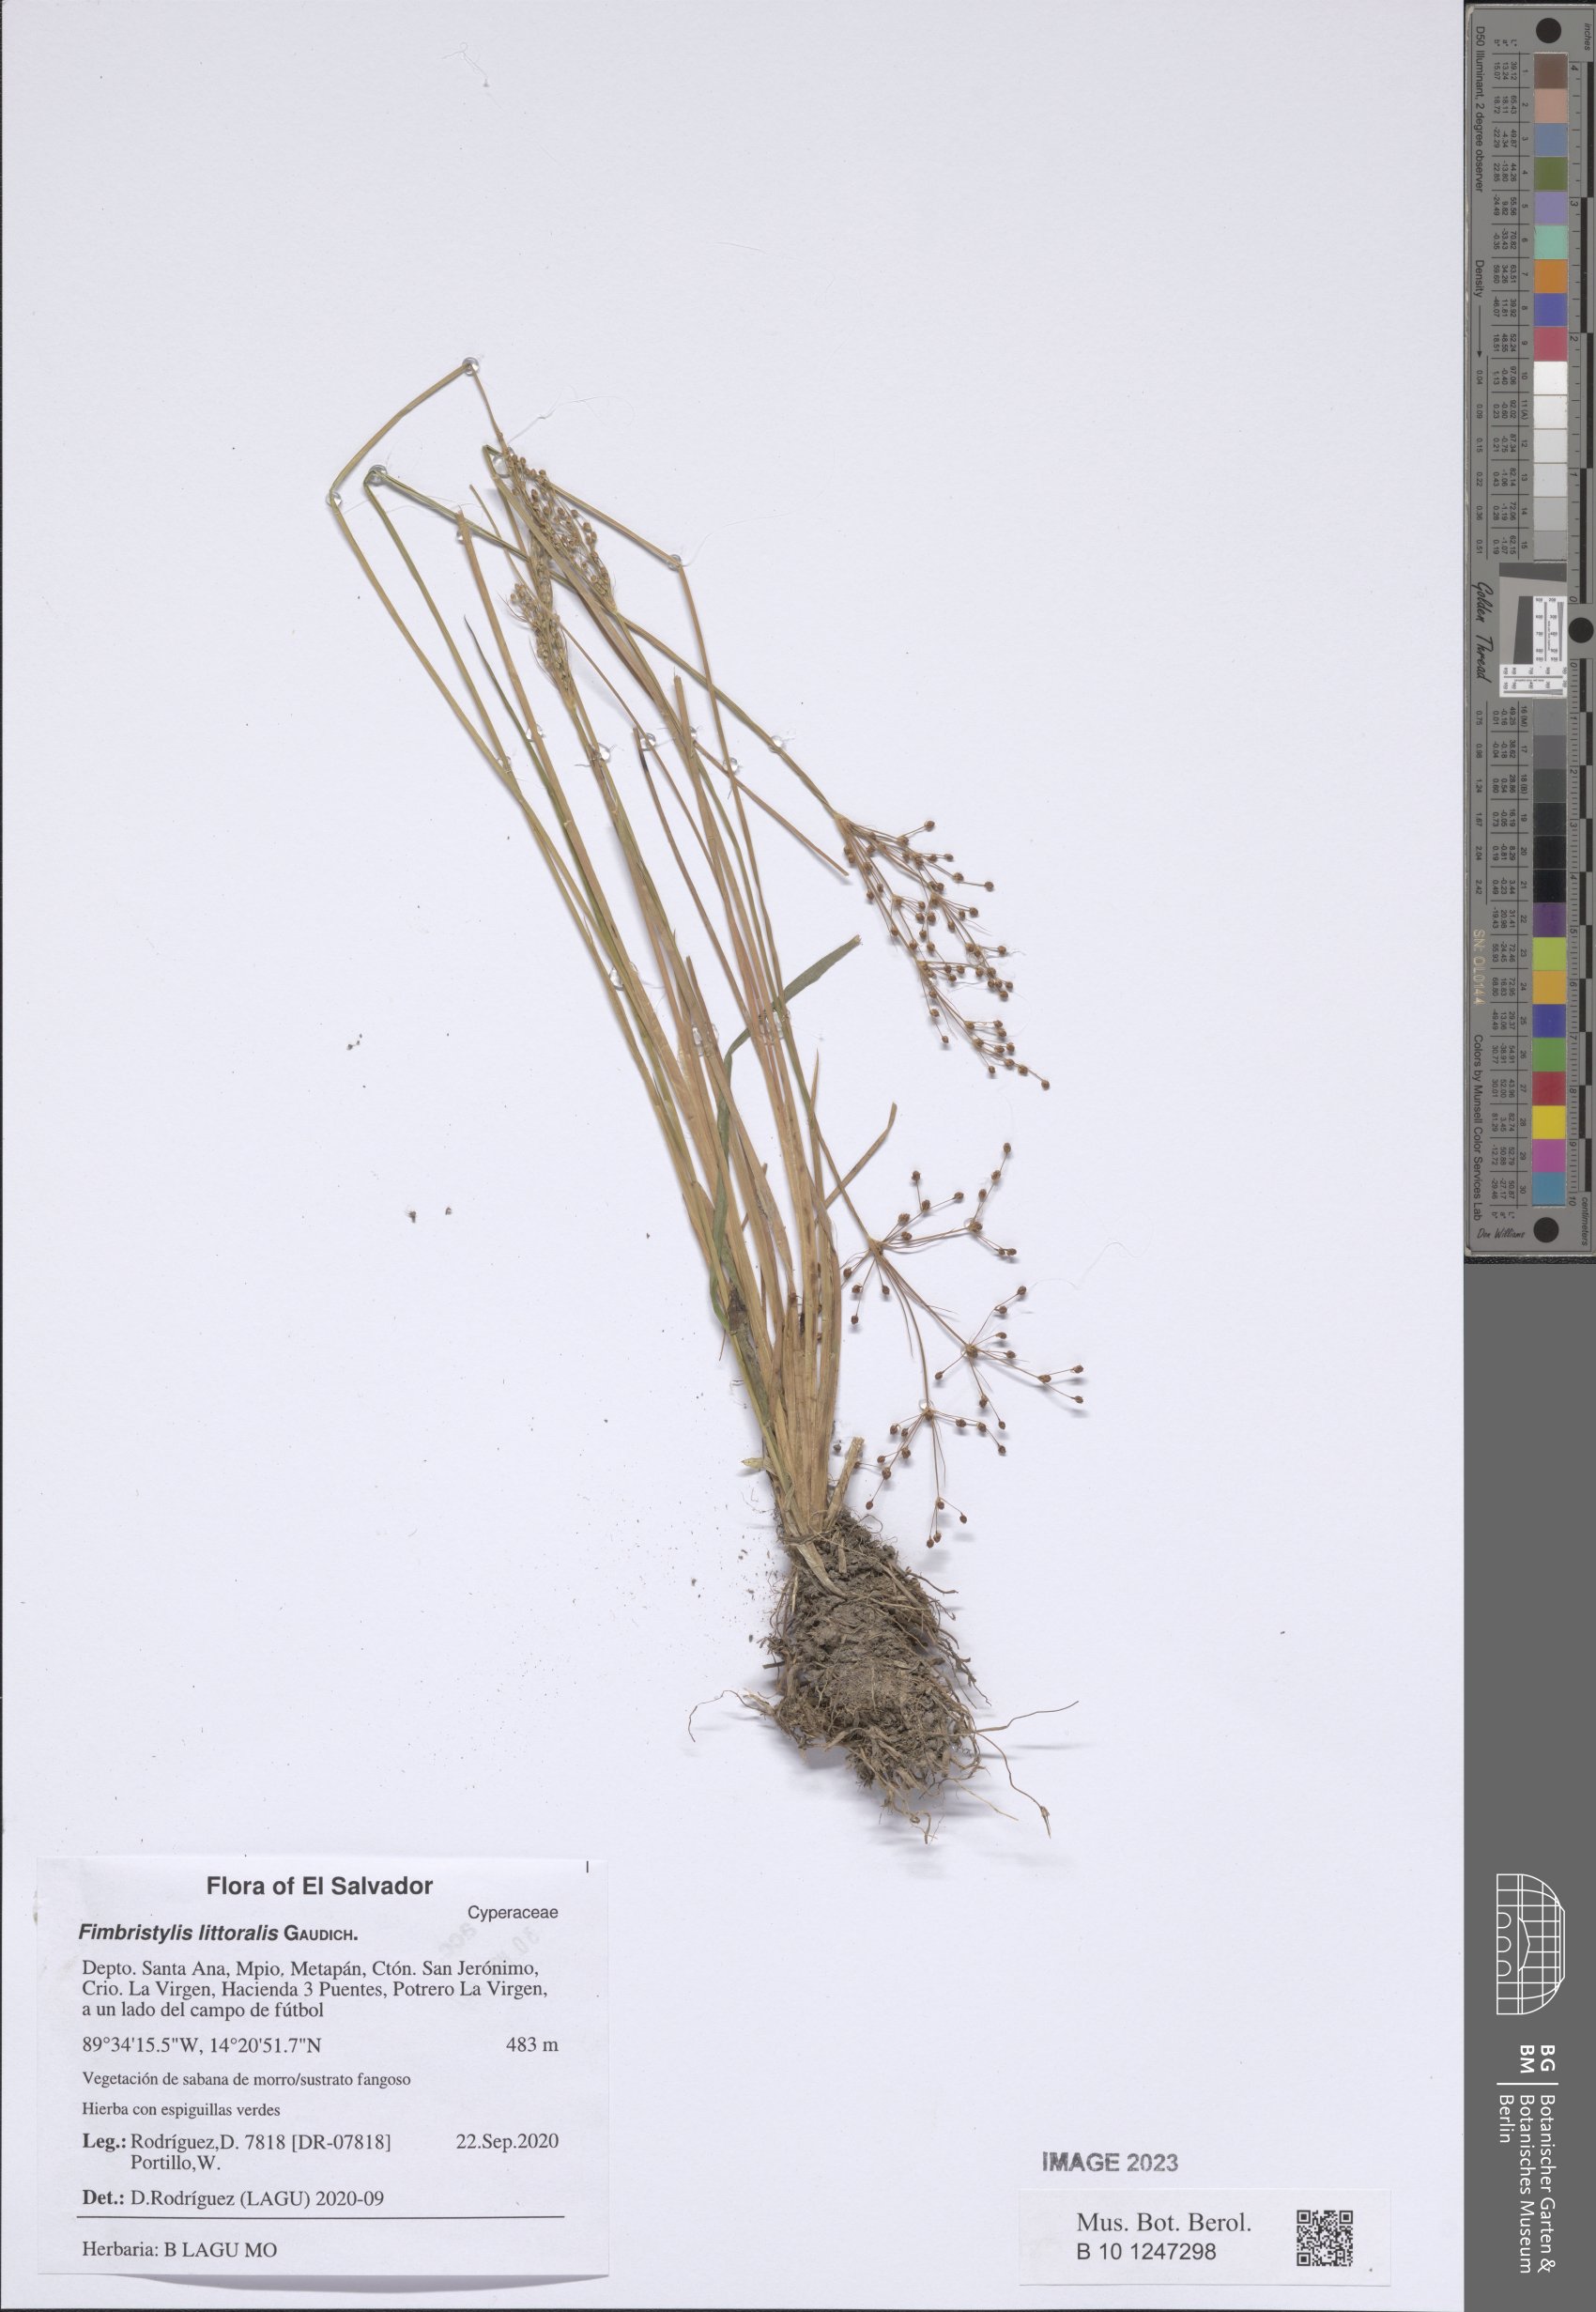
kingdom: Plantae
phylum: Tracheophyta
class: Liliopsida
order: Poales
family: Cyperaceae
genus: Fimbristylis
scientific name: Fimbristylis littoralis
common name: Fimbry
